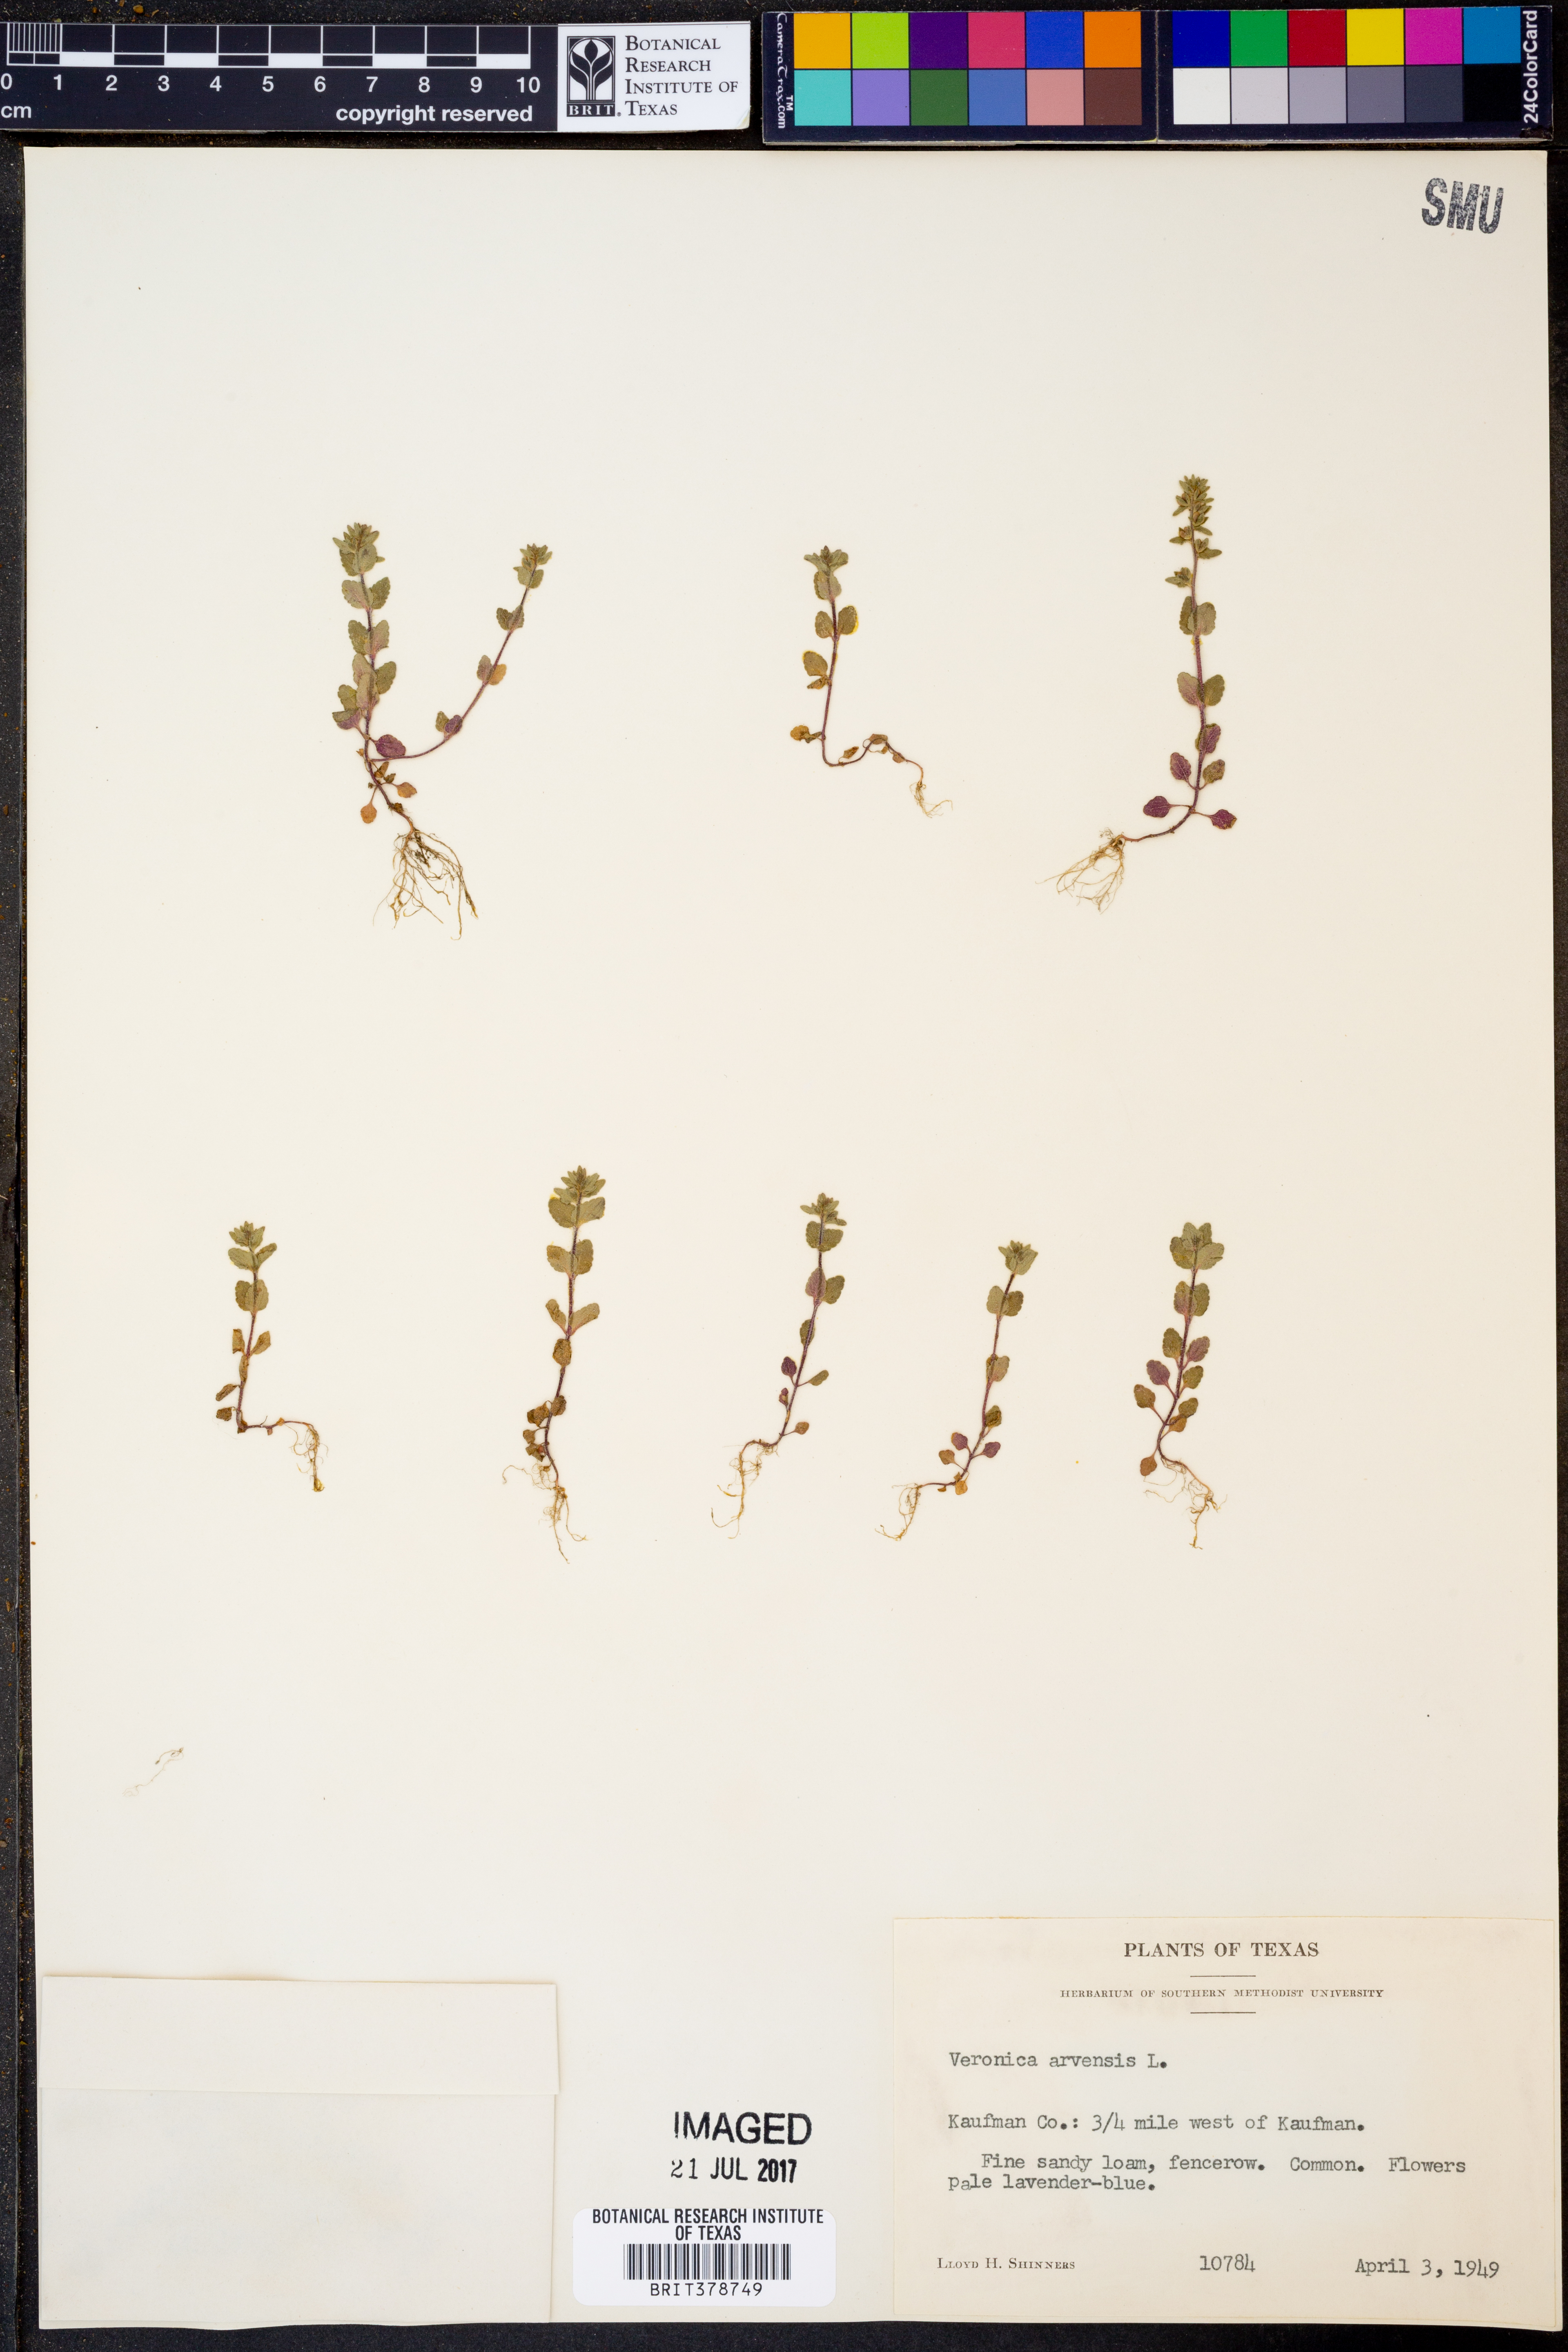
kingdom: Plantae
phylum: Tracheophyta
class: Magnoliopsida
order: Lamiales
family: Plantaginaceae
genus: Veronica
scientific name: Veronica arvensis
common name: Corn speedwell
